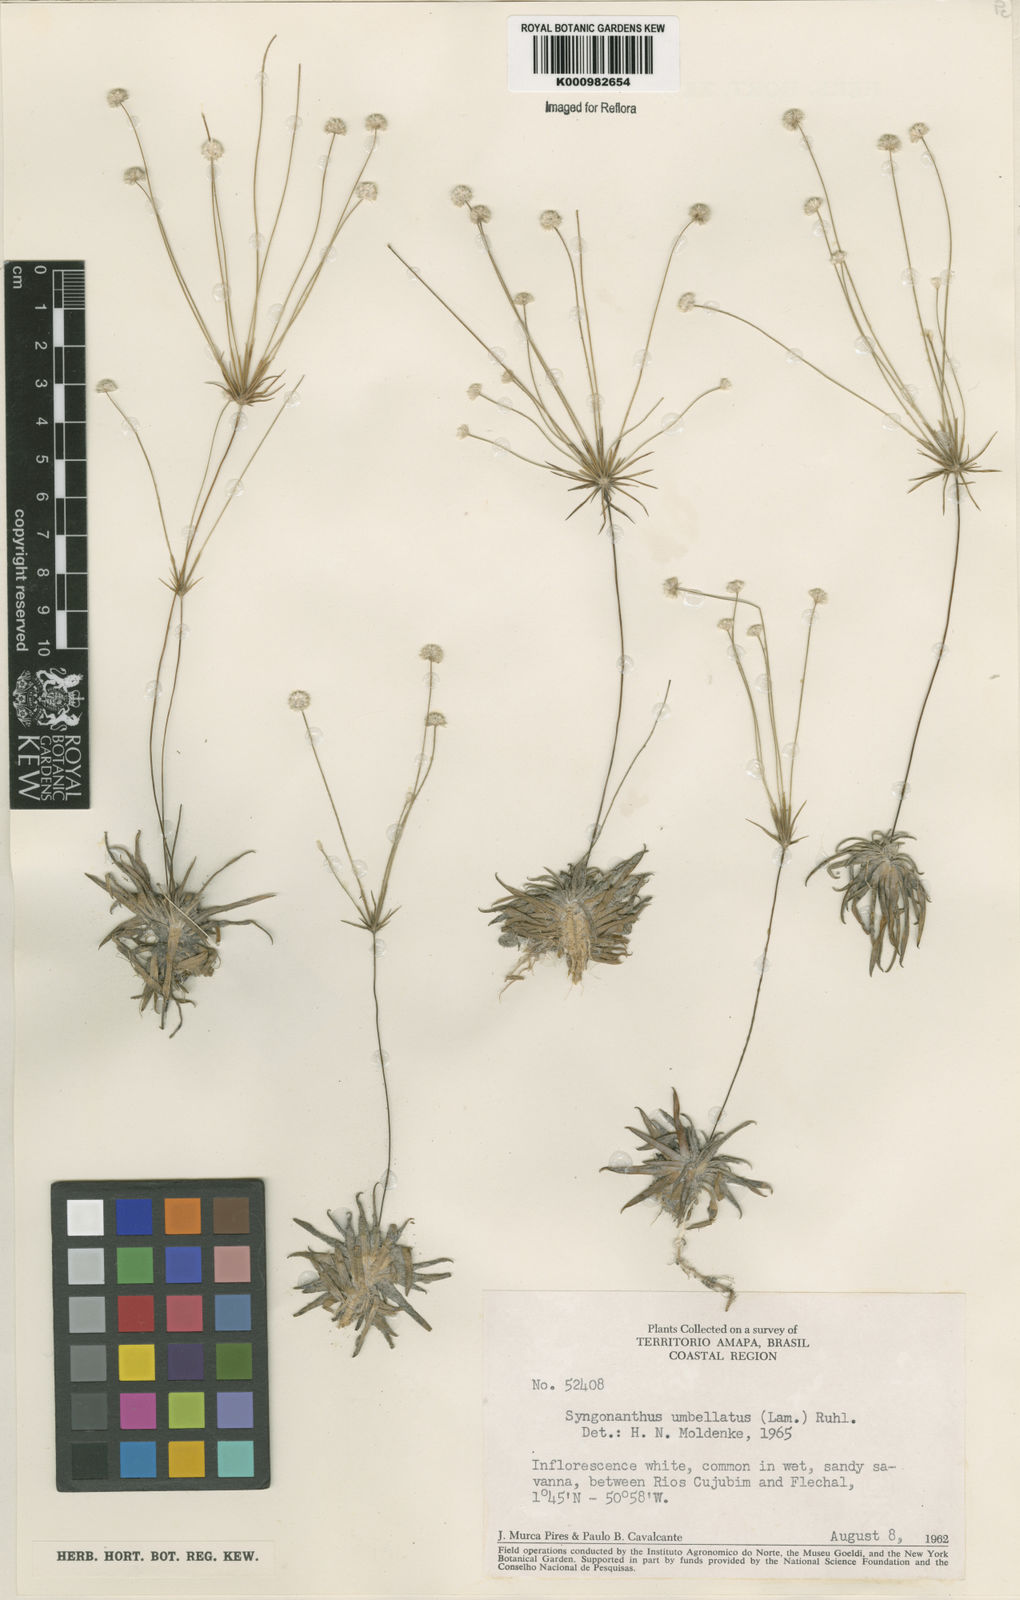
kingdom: Plantae
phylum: Tracheophyta
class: Liliopsida
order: Poales
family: Eriocaulaceae
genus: Syngonanthus
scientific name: Syngonanthus umbellatus
